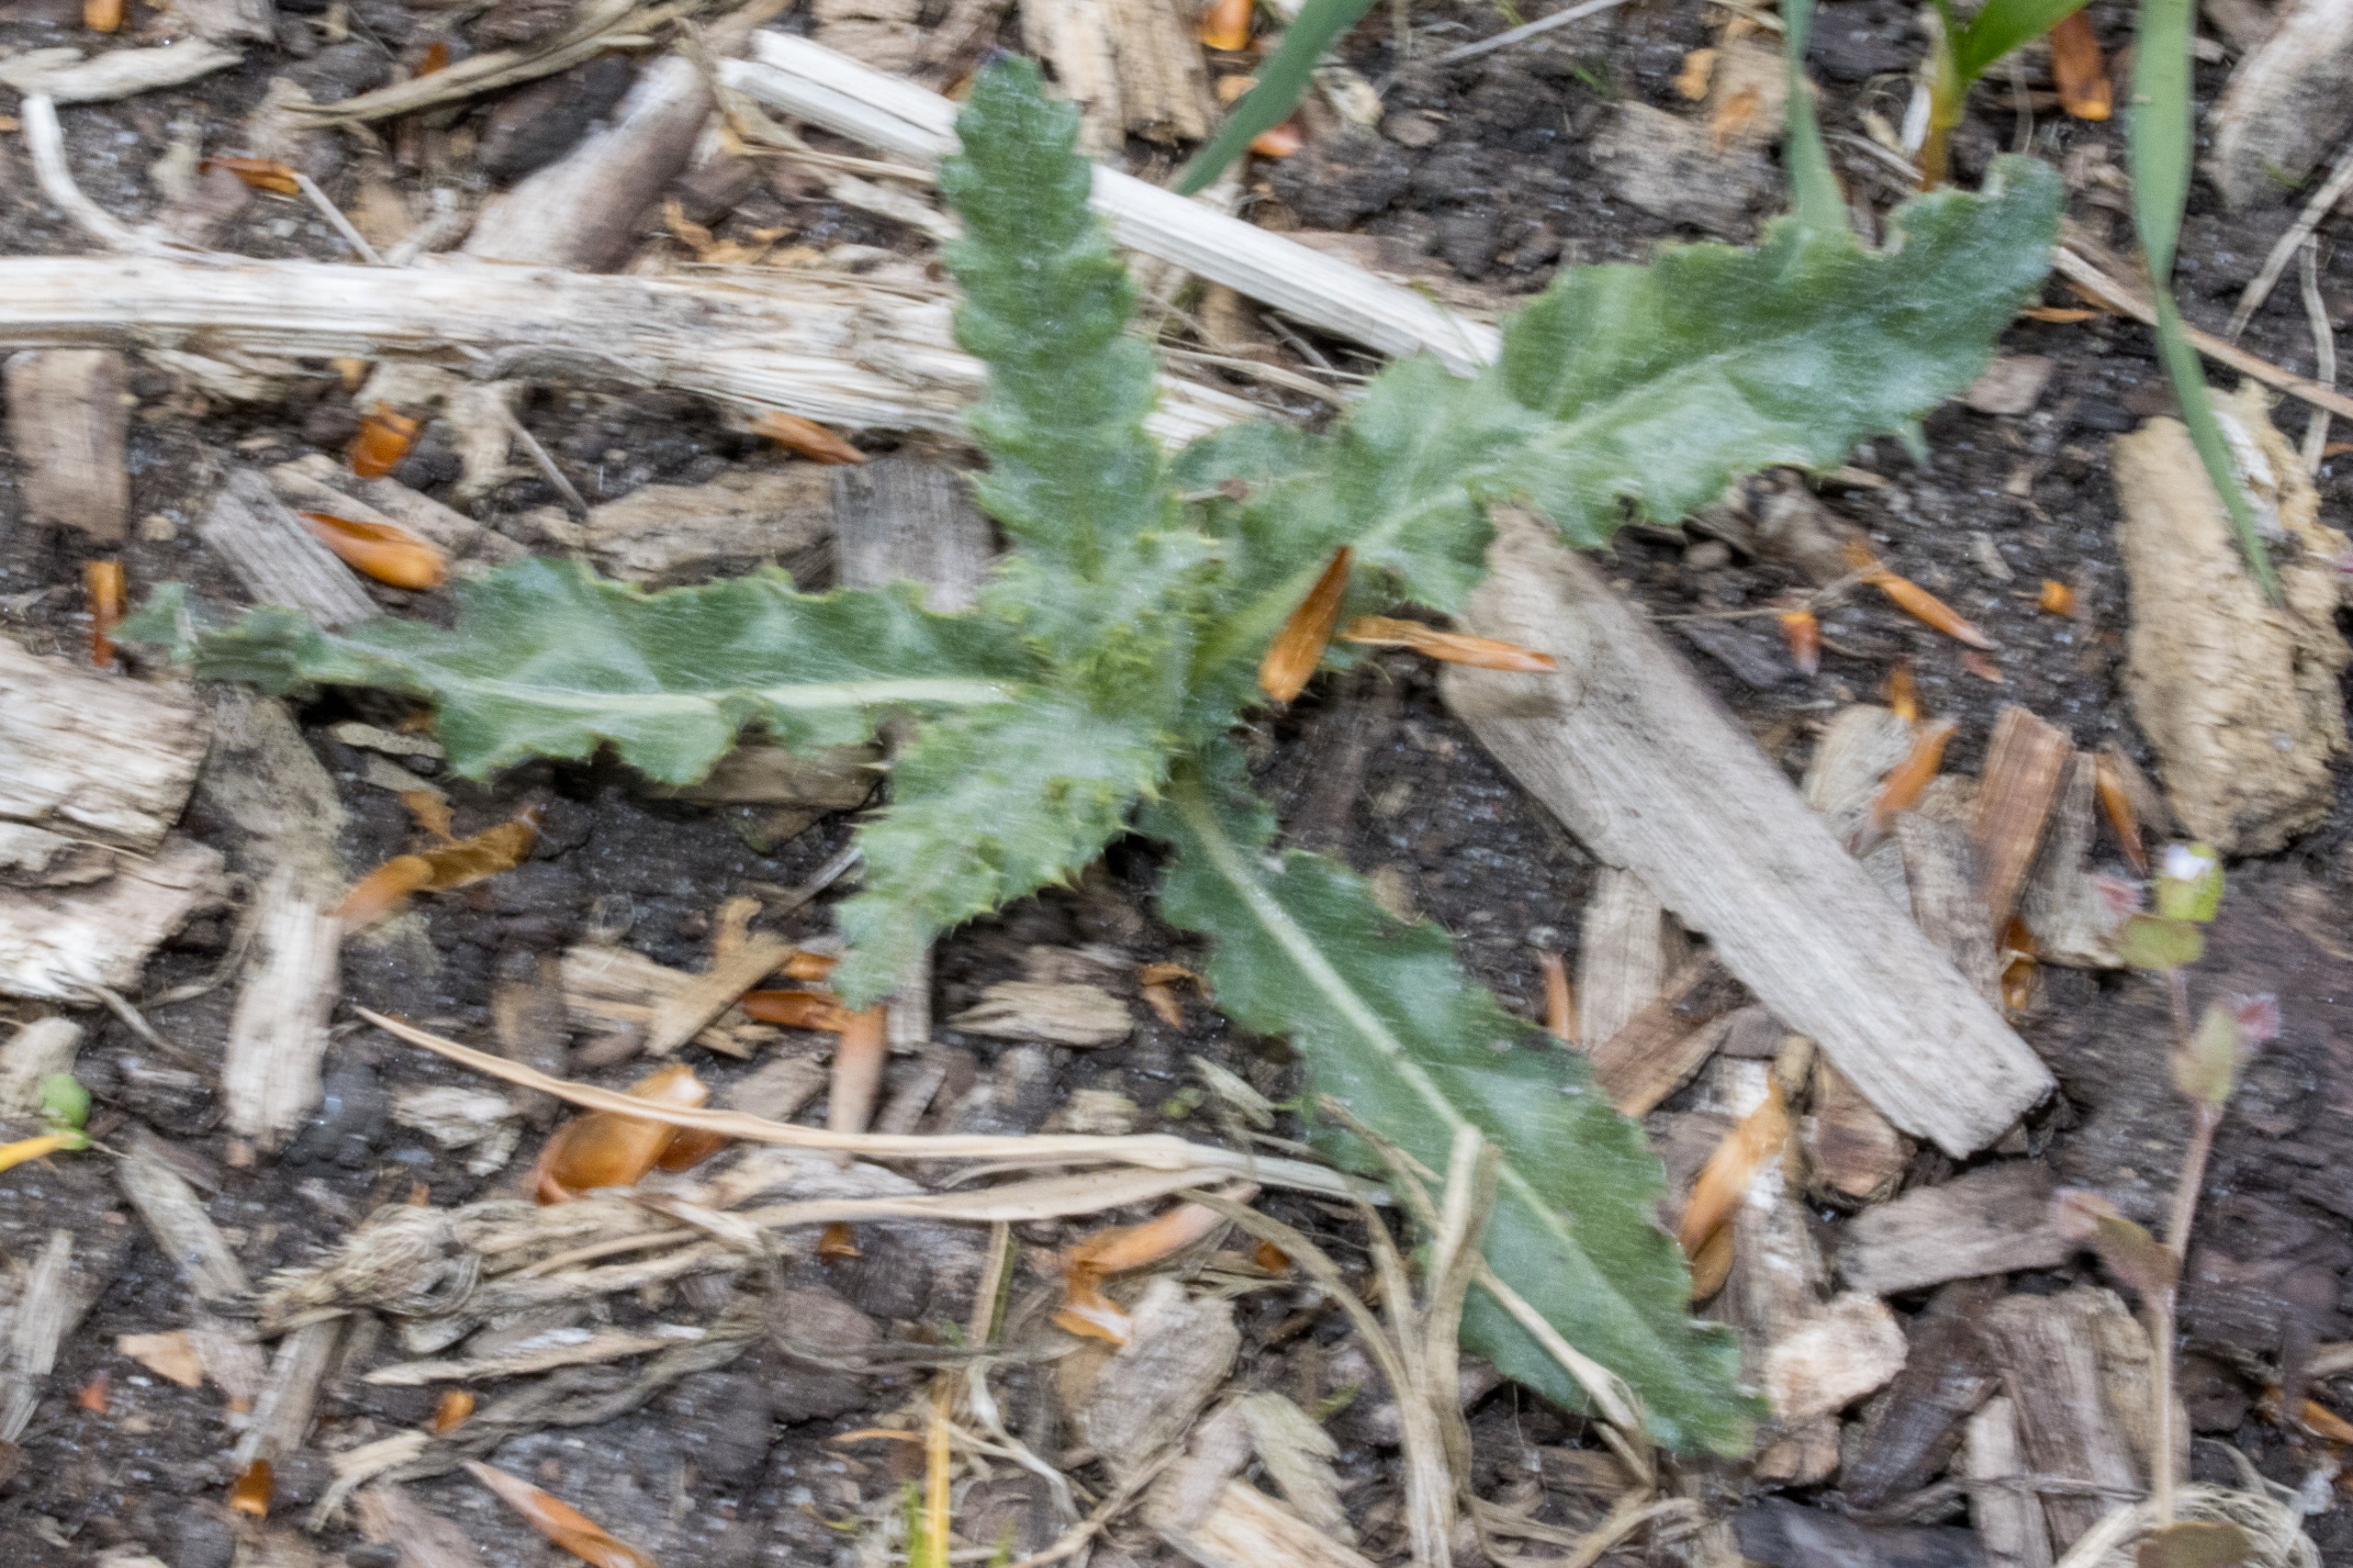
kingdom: Plantae
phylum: Tracheophyta
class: Magnoliopsida
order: Asterales
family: Asteraceae
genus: Cirsium
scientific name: Cirsium arvense
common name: Ager-tidsel
